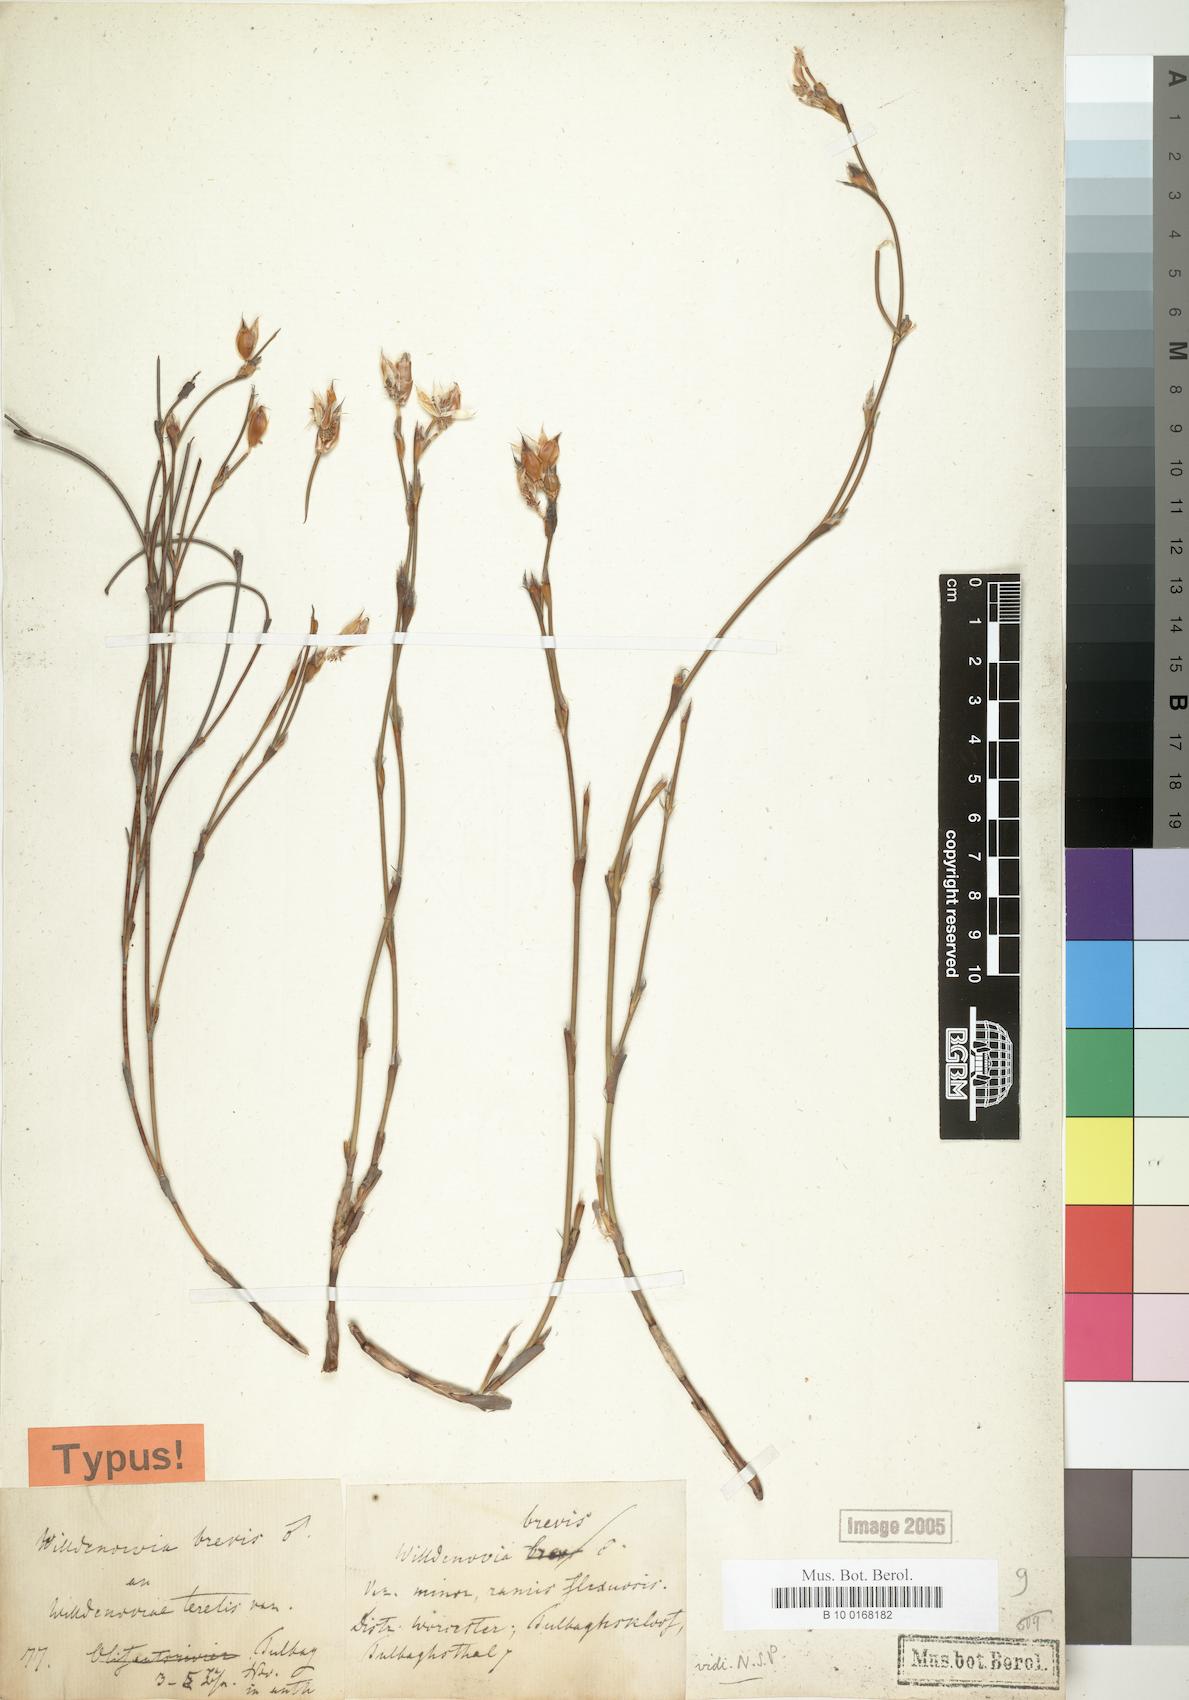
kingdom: Plantae
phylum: Tracheophyta
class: Liliopsida
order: Poales
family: Restionaceae
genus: Willdenowia
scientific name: Willdenowia arescens
